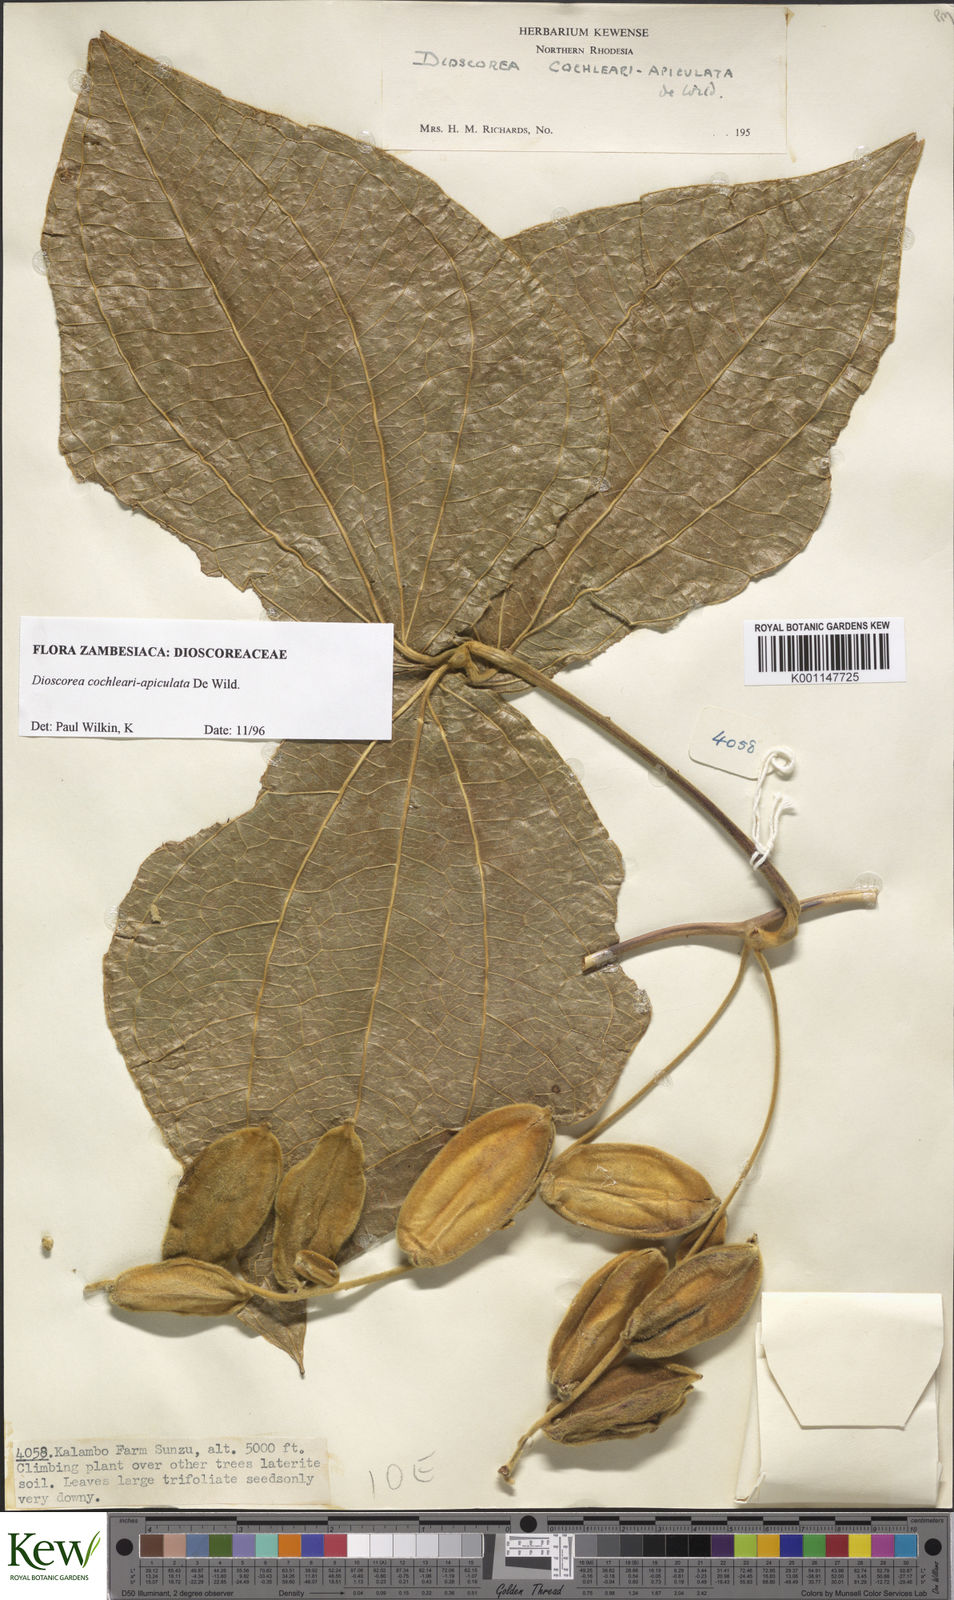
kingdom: Plantae
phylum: Tracheophyta
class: Liliopsida
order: Dioscoreales
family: Dioscoreaceae
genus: Dioscorea
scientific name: Dioscorea cochleariapiculata
